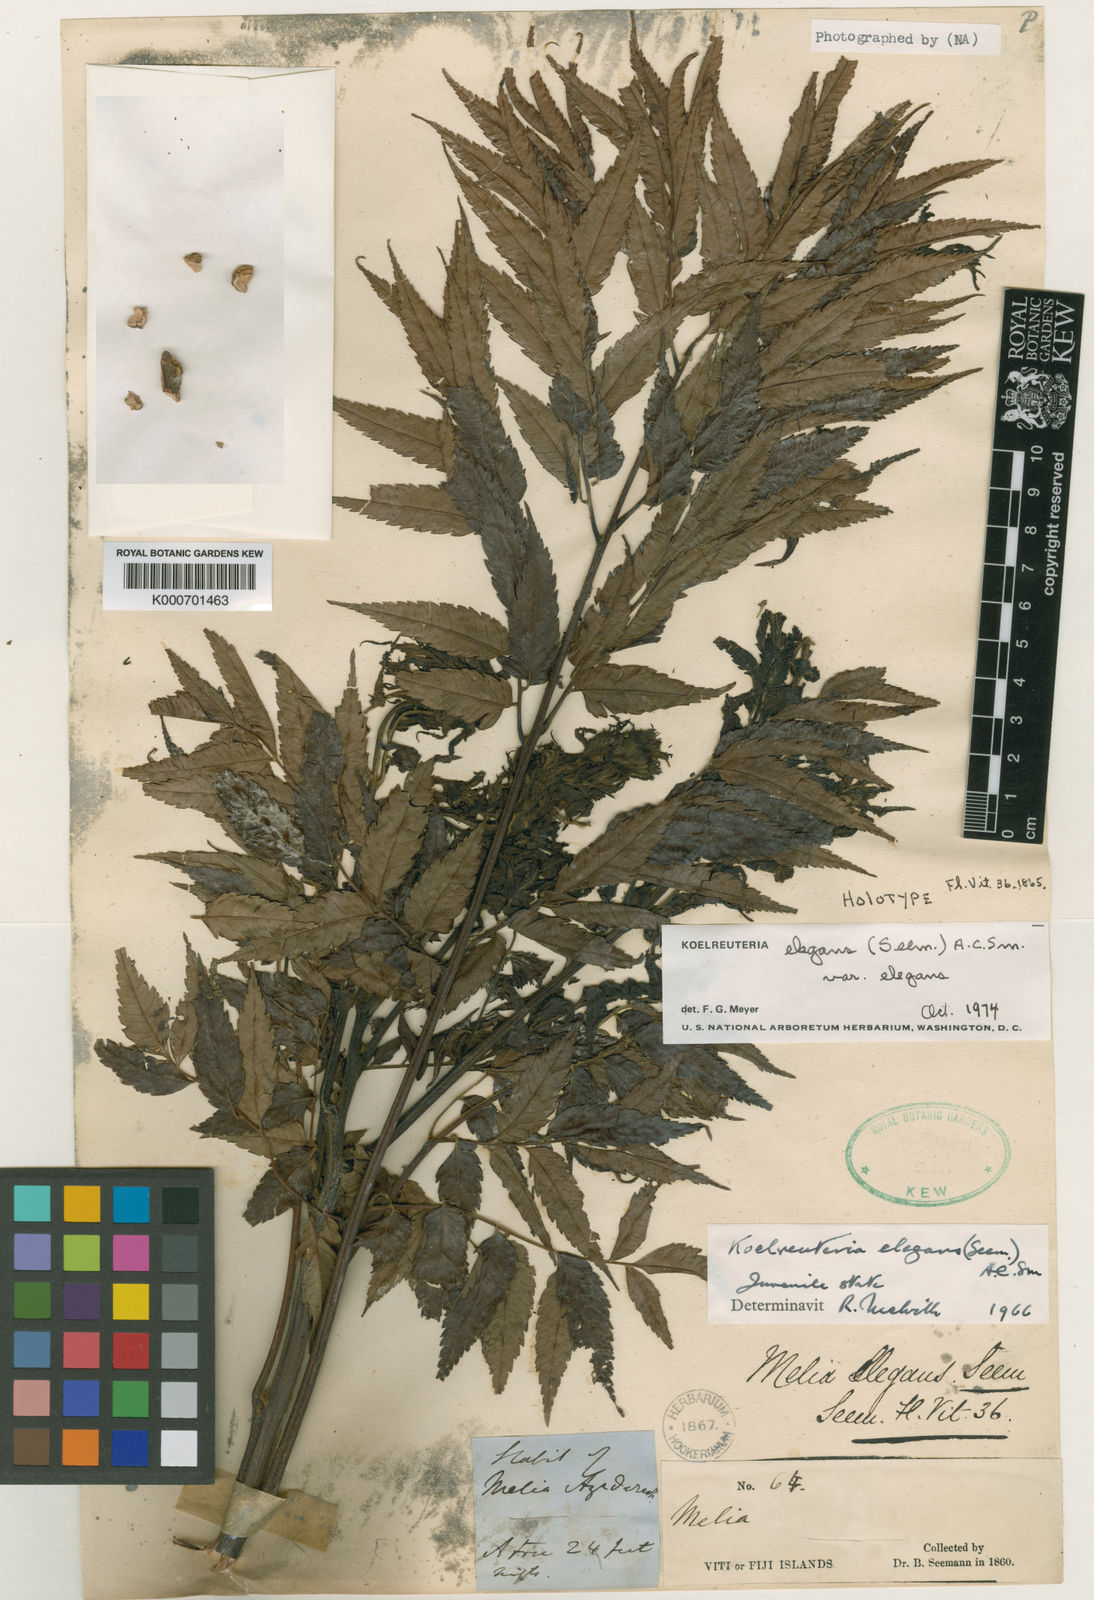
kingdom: Plantae
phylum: Tracheophyta
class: Magnoliopsida
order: Sapindales
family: Sapindaceae
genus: Koelreuteria
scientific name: Koelreuteria elegans
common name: Chinese flame tree
